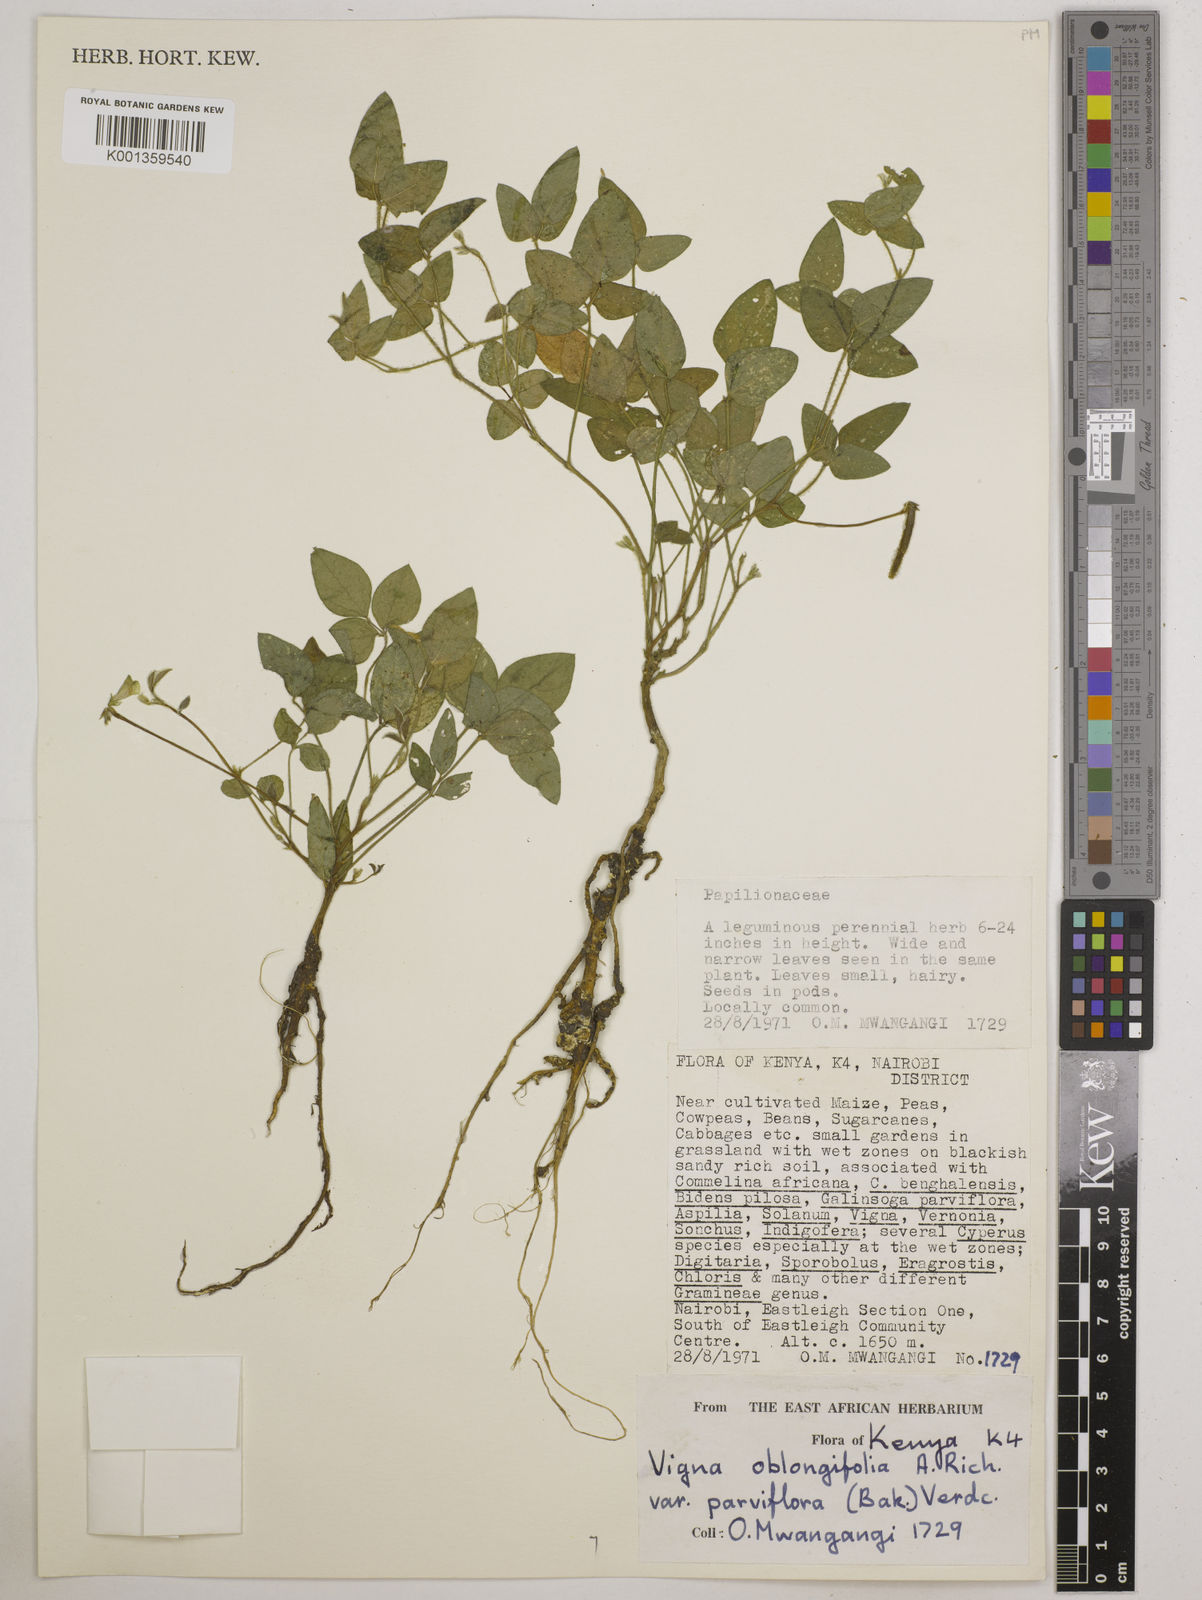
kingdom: Plantae
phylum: Tracheophyta
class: Magnoliopsida
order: Fabales
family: Fabaceae
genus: Vigna
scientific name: Vigna
